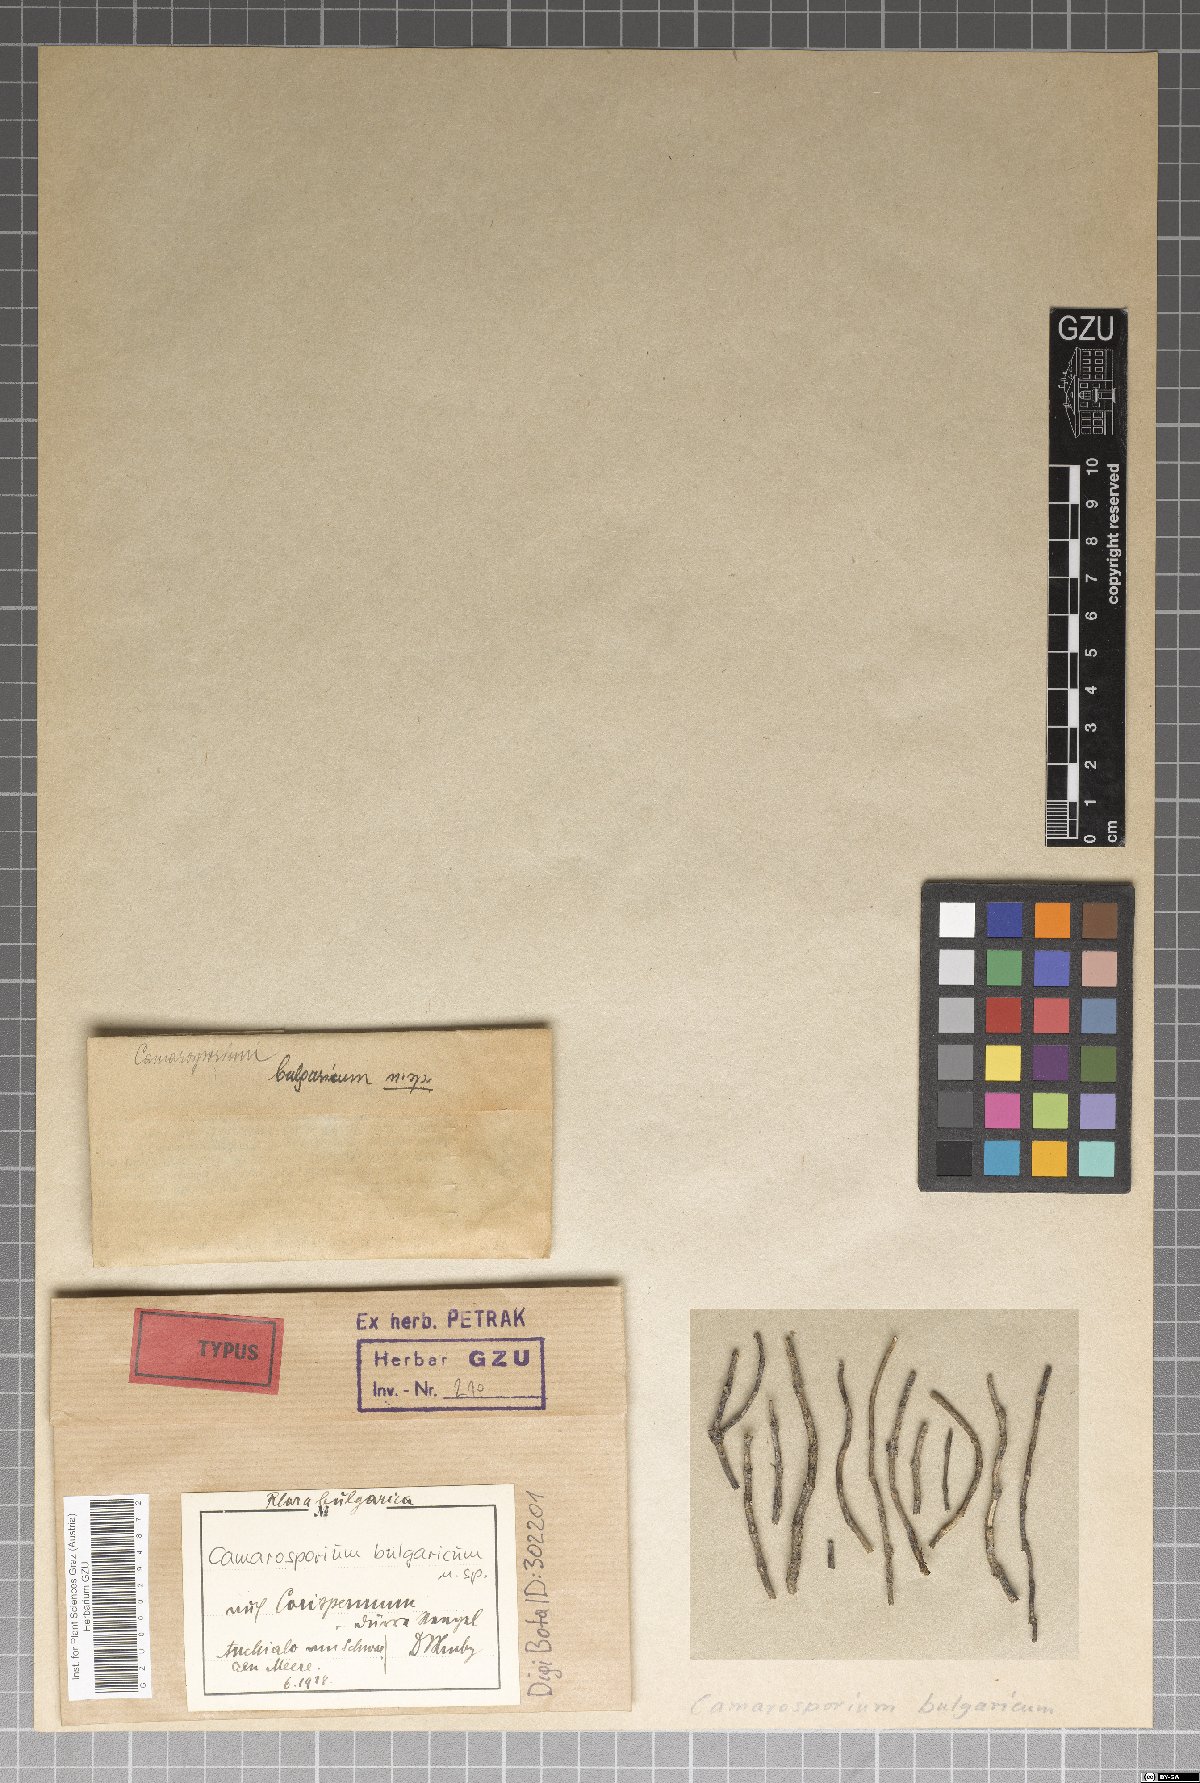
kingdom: Fungi
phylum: Ascomycota
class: Dothideomycetes
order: Pleosporales
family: Camarosporiaceae
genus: Camarosporium
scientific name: Camarosporium bulgaricum
